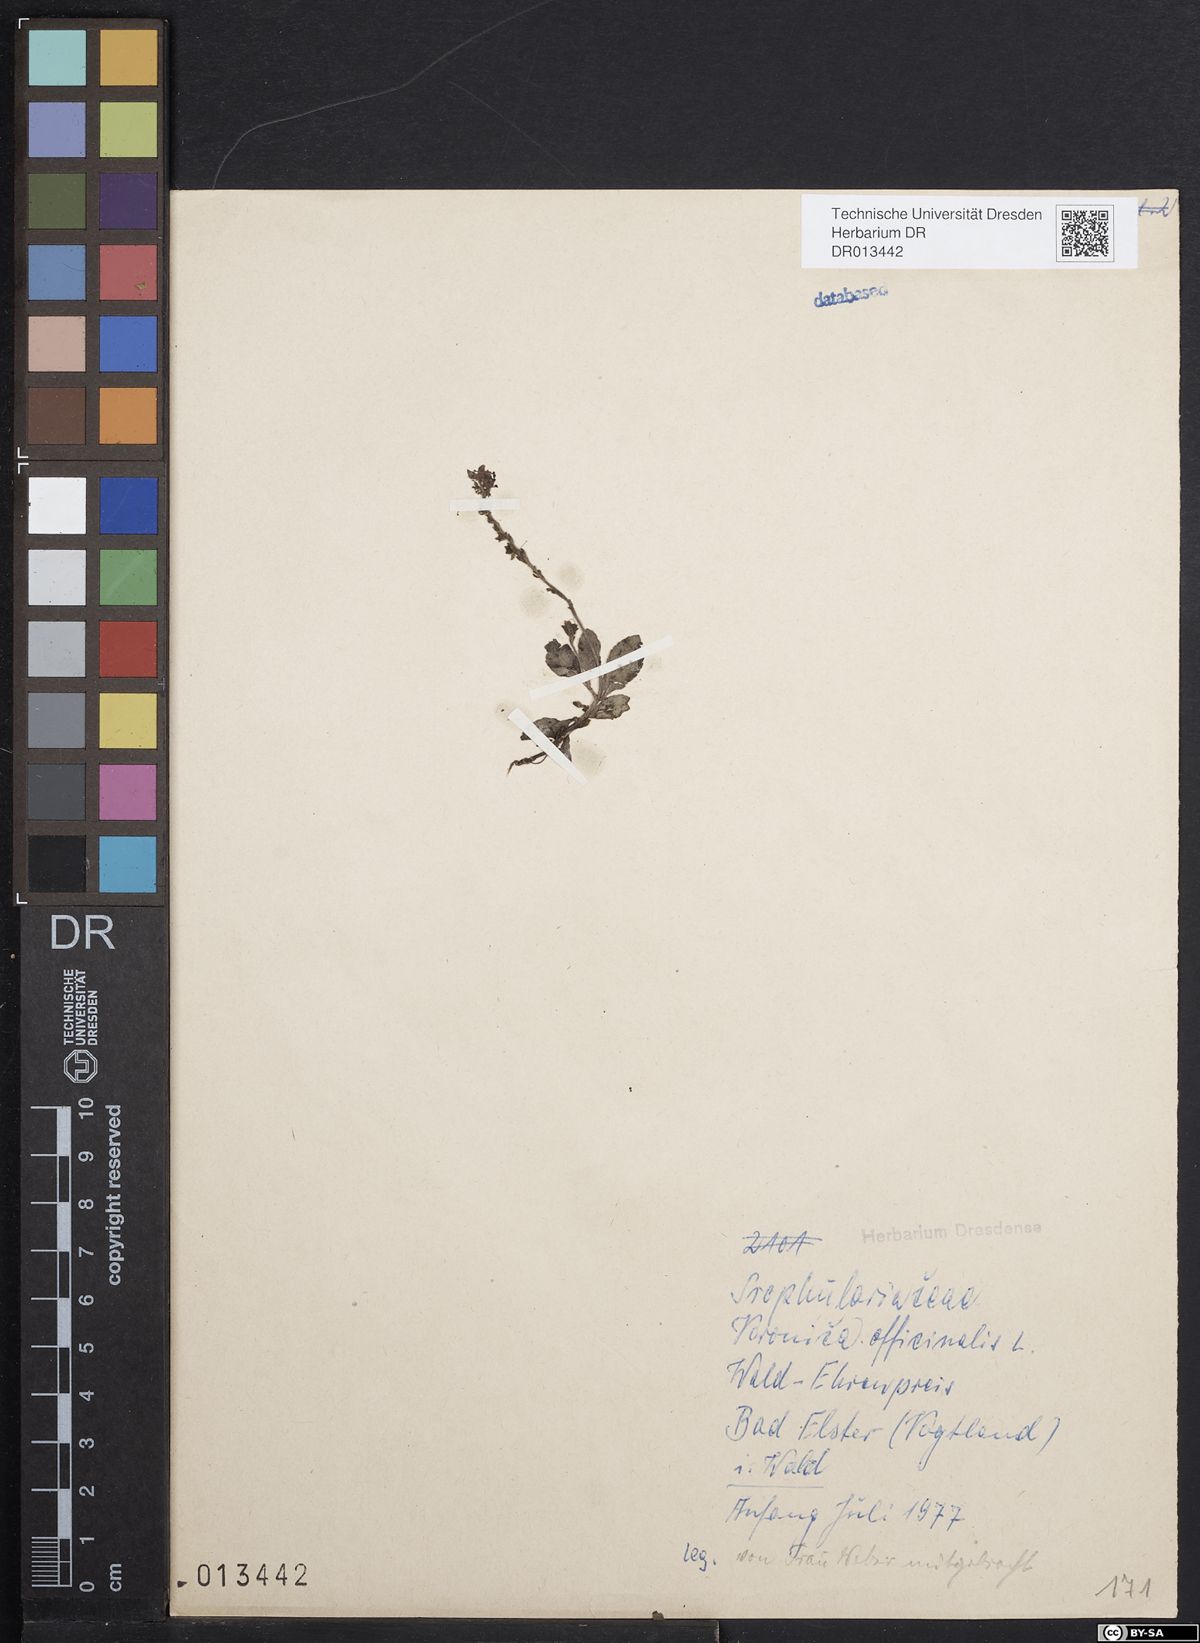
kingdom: Plantae
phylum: Tracheophyta
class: Magnoliopsida
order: Lamiales
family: Plantaginaceae
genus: Veronica
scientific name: Veronica officinalis
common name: Common speedwell
